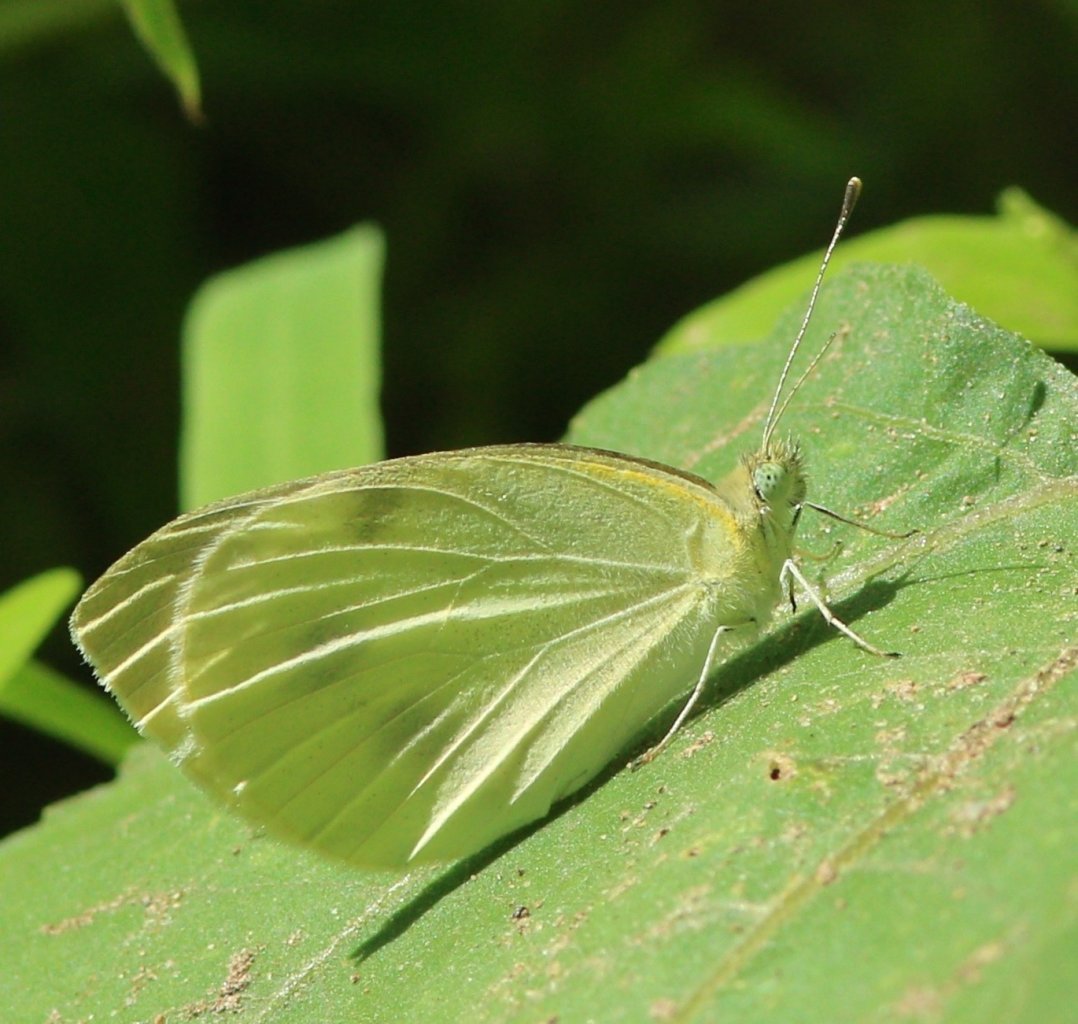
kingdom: Animalia
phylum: Arthropoda
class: Insecta
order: Lepidoptera
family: Pieridae
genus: Pieris
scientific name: Pieris rapae
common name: Cabbage White
